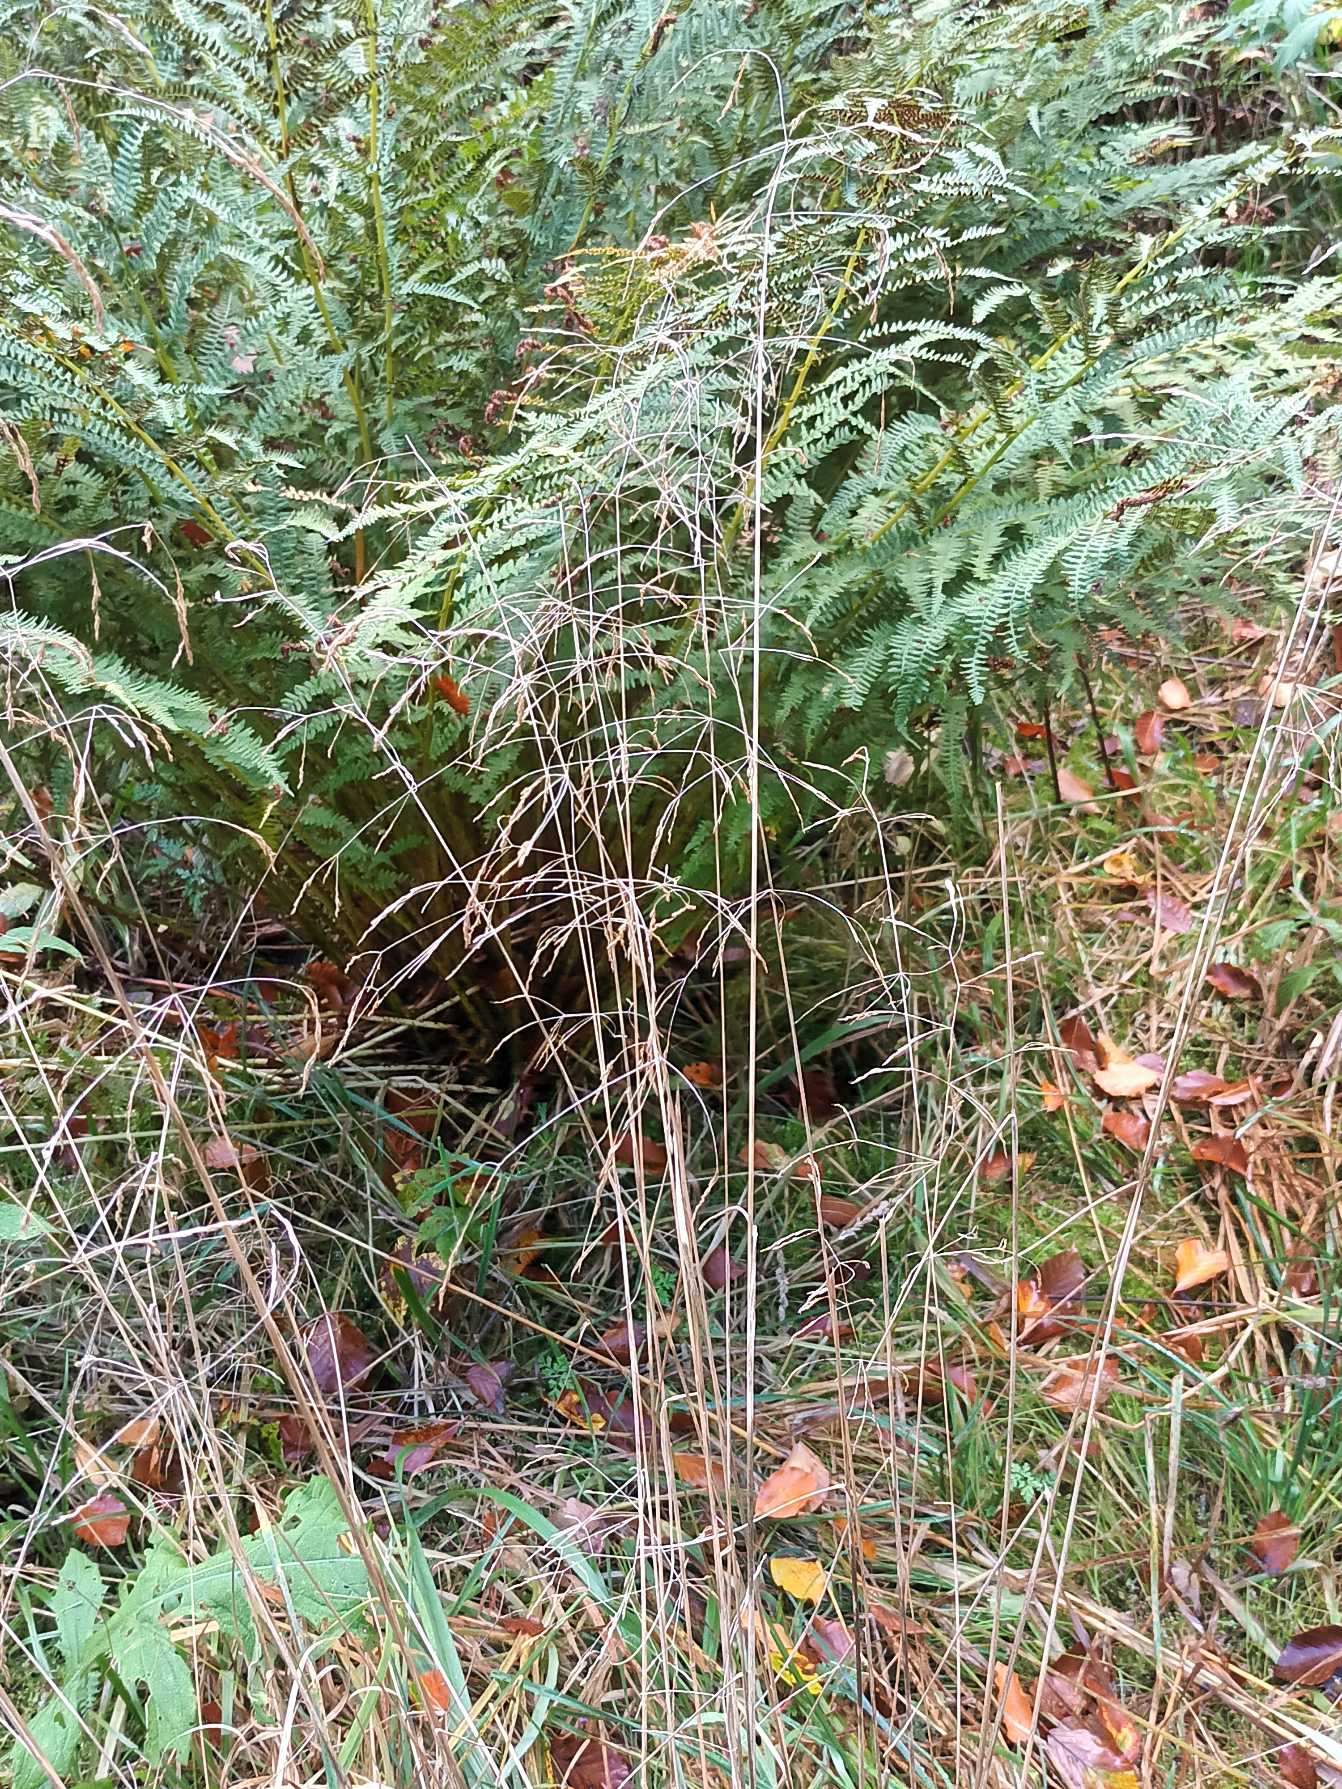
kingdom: Plantae
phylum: Tracheophyta
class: Liliopsida
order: Poales
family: Poaceae
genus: Deschampsia
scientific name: Deschampsia cespitosa
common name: Mose-bunke
